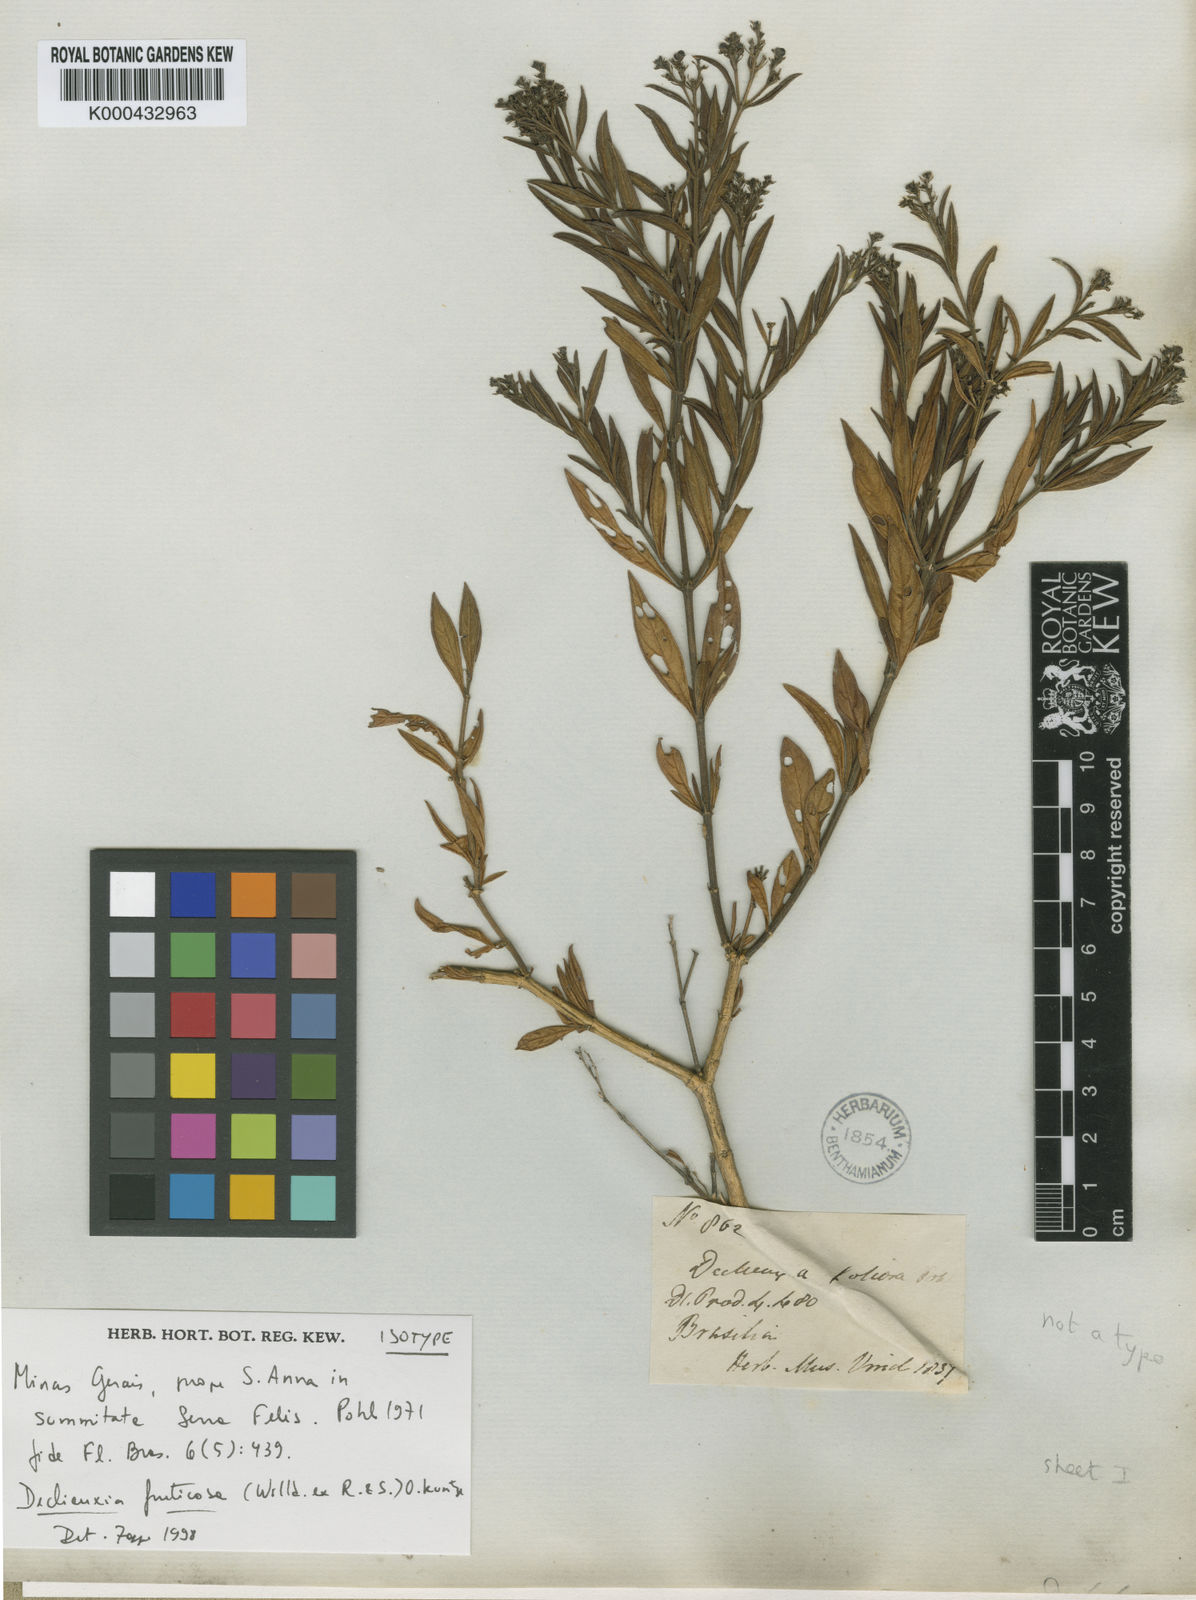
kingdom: Plantae
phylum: Tracheophyta
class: Magnoliopsida
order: Gentianales
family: Rubiaceae
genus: Declieuxia
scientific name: Declieuxia fruticosa
